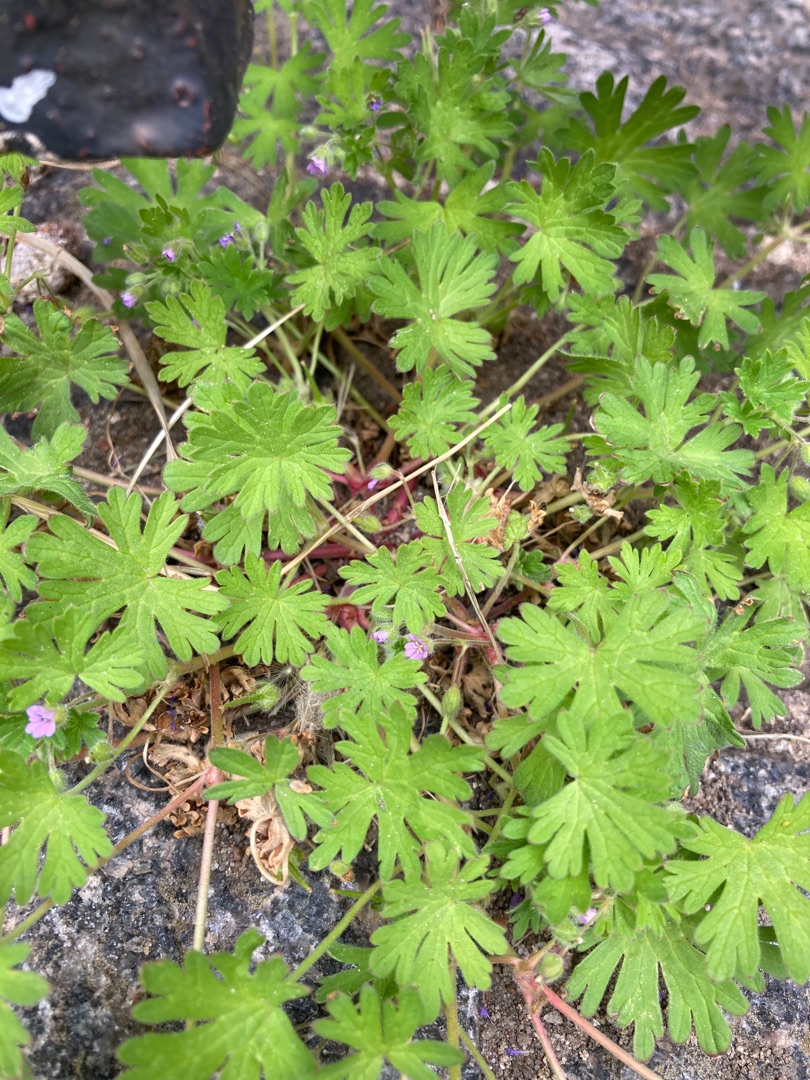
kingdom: Plantae
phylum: Tracheophyta
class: Magnoliopsida
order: Geraniales
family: Geraniaceae
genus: Geranium
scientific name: Geranium pusillum
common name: Liden storkenæb
